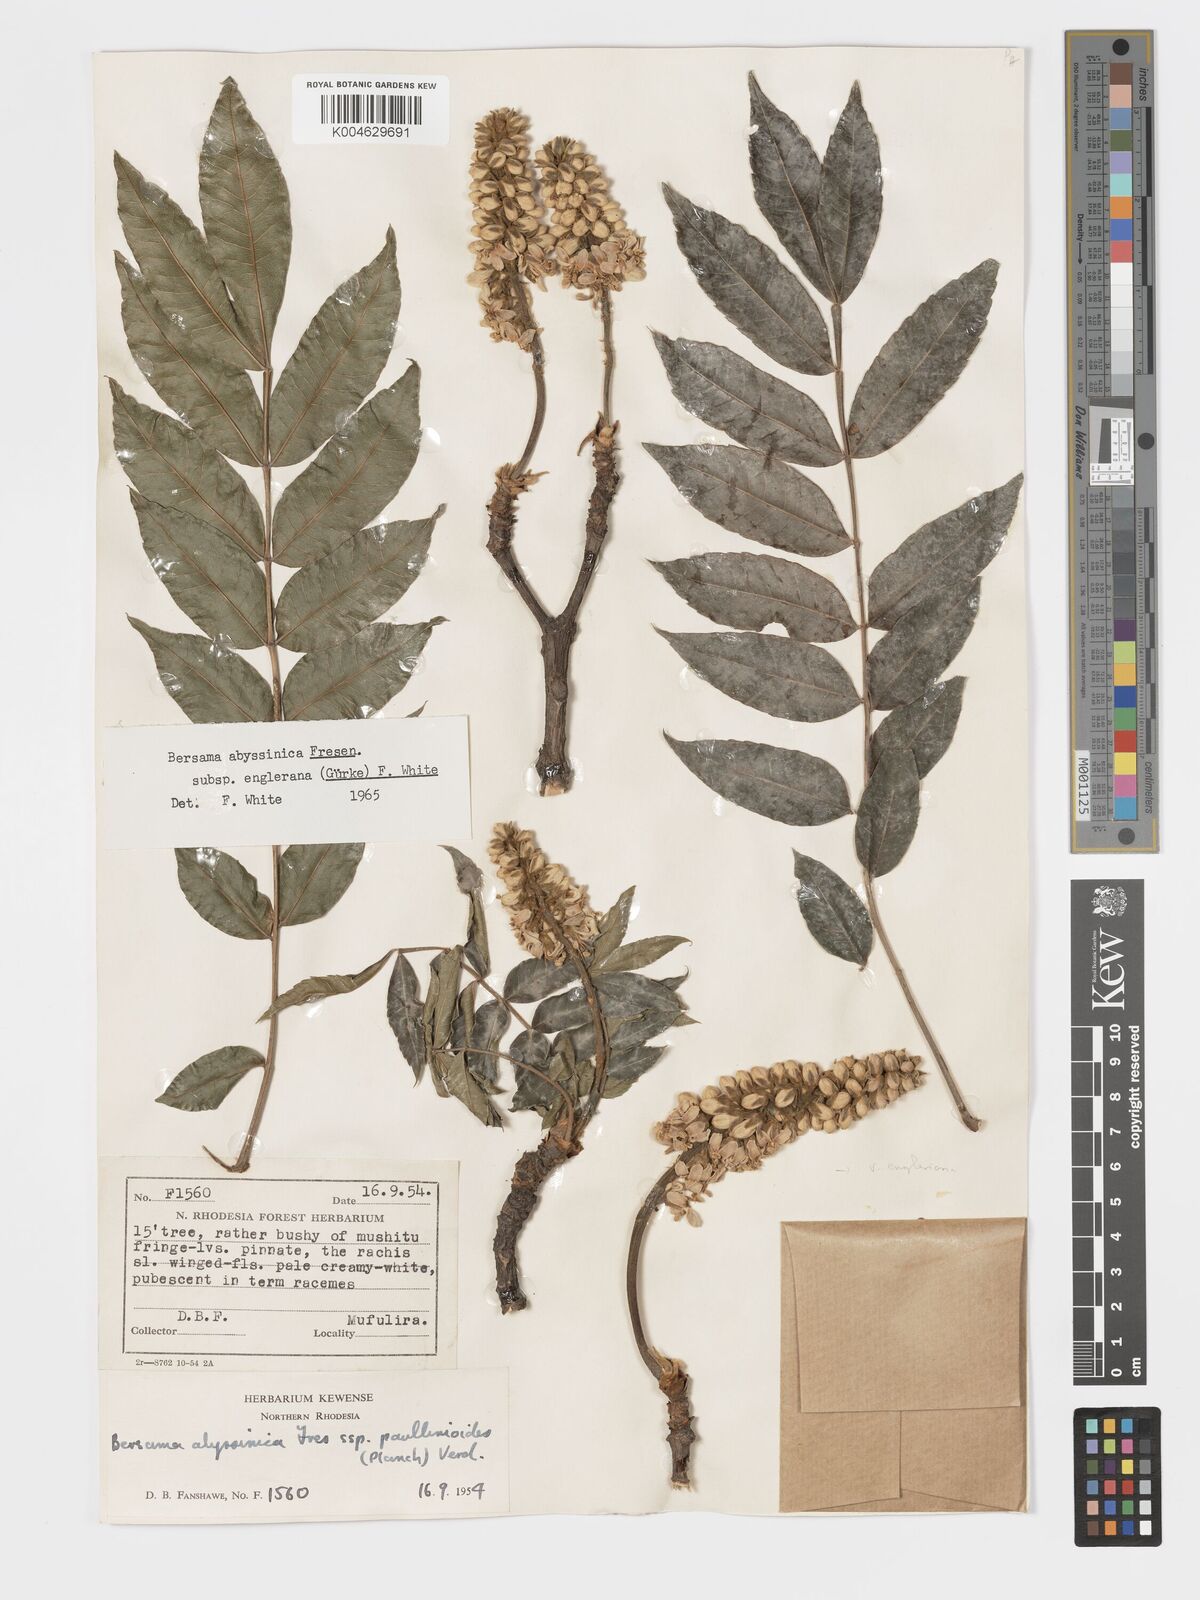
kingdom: Plantae
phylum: Tracheophyta
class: Magnoliopsida
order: Geraniales
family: Melianthaceae
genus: Bersama
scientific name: Bersama abyssinica
